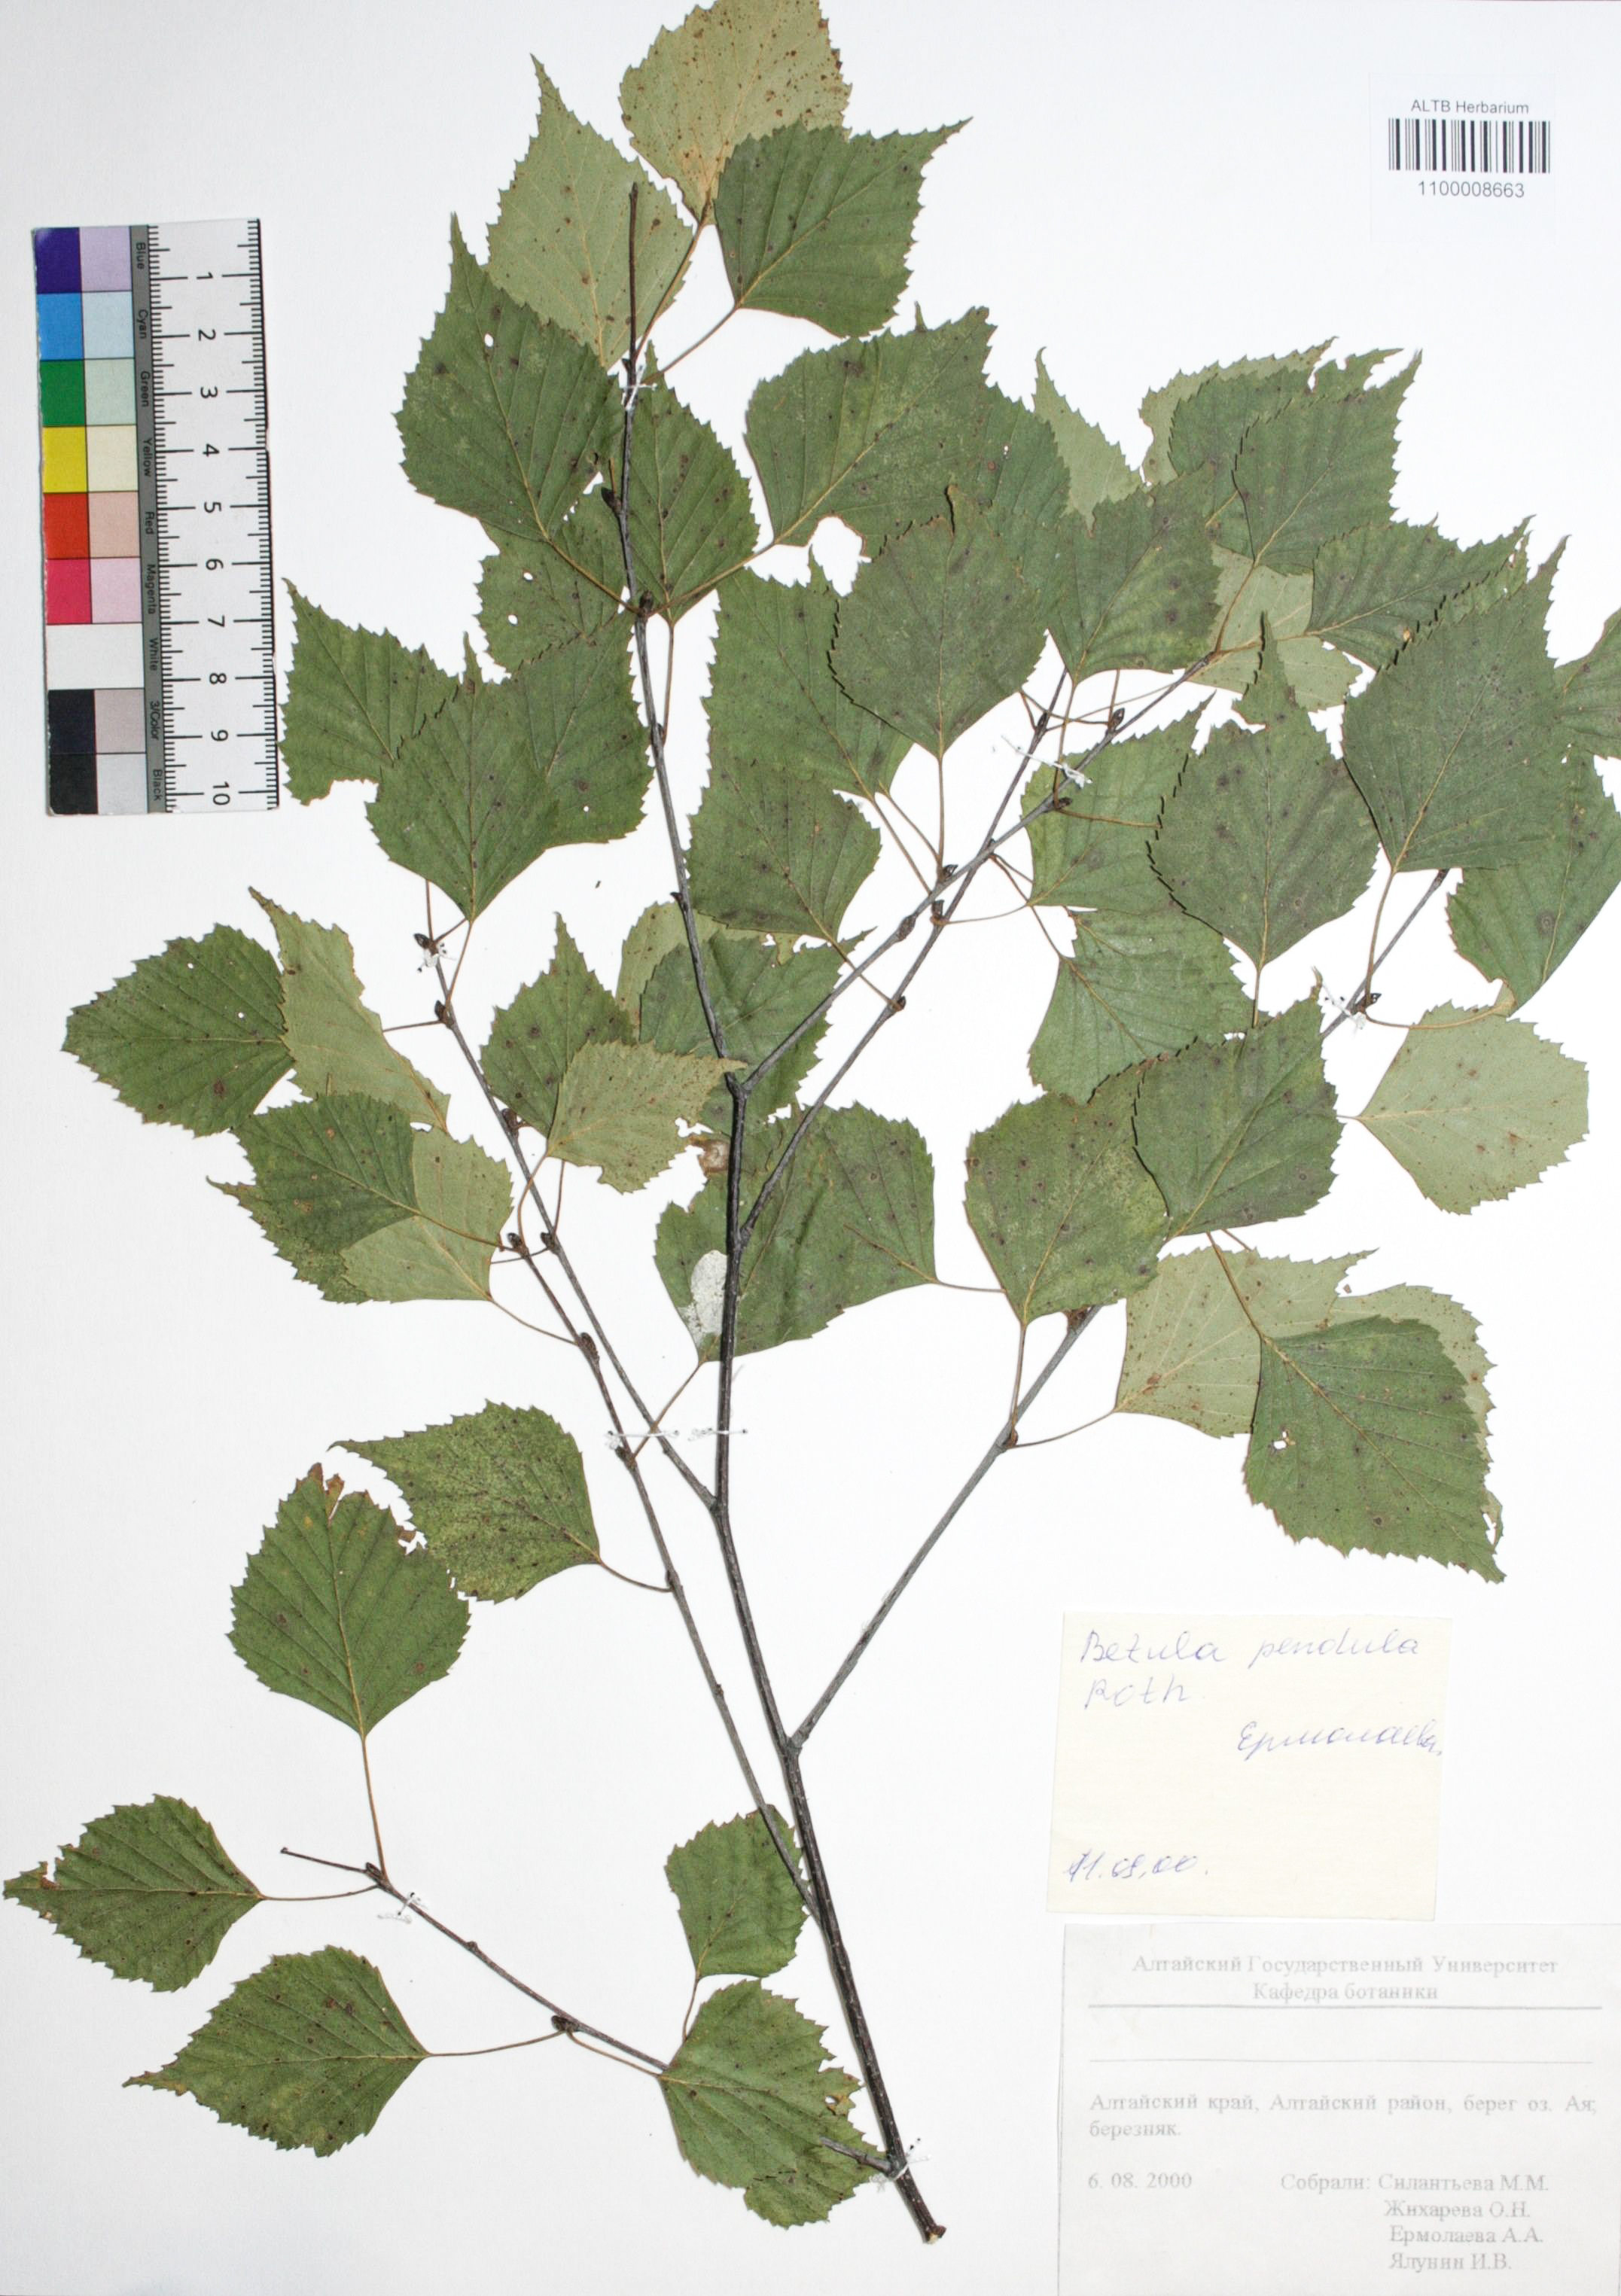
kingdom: Plantae
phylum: Tracheophyta
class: Magnoliopsida
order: Fagales
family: Betulaceae
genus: Betula
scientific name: Betula pendula
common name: Silver birch
